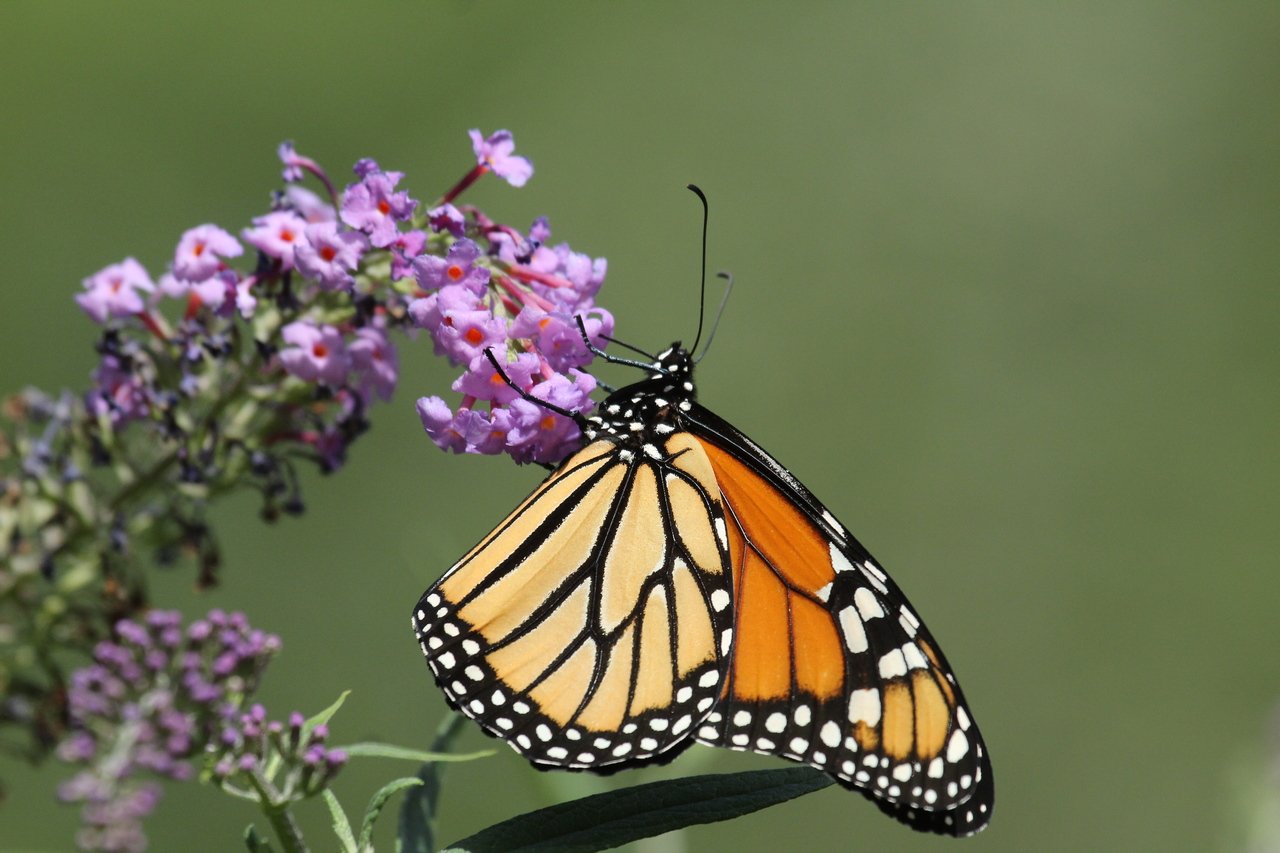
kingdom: Animalia
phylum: Arthropoda
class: Insecta
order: Lepidoptera
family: Nymphalidae
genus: Danaus
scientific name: Danaus plexippus
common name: Monarch
